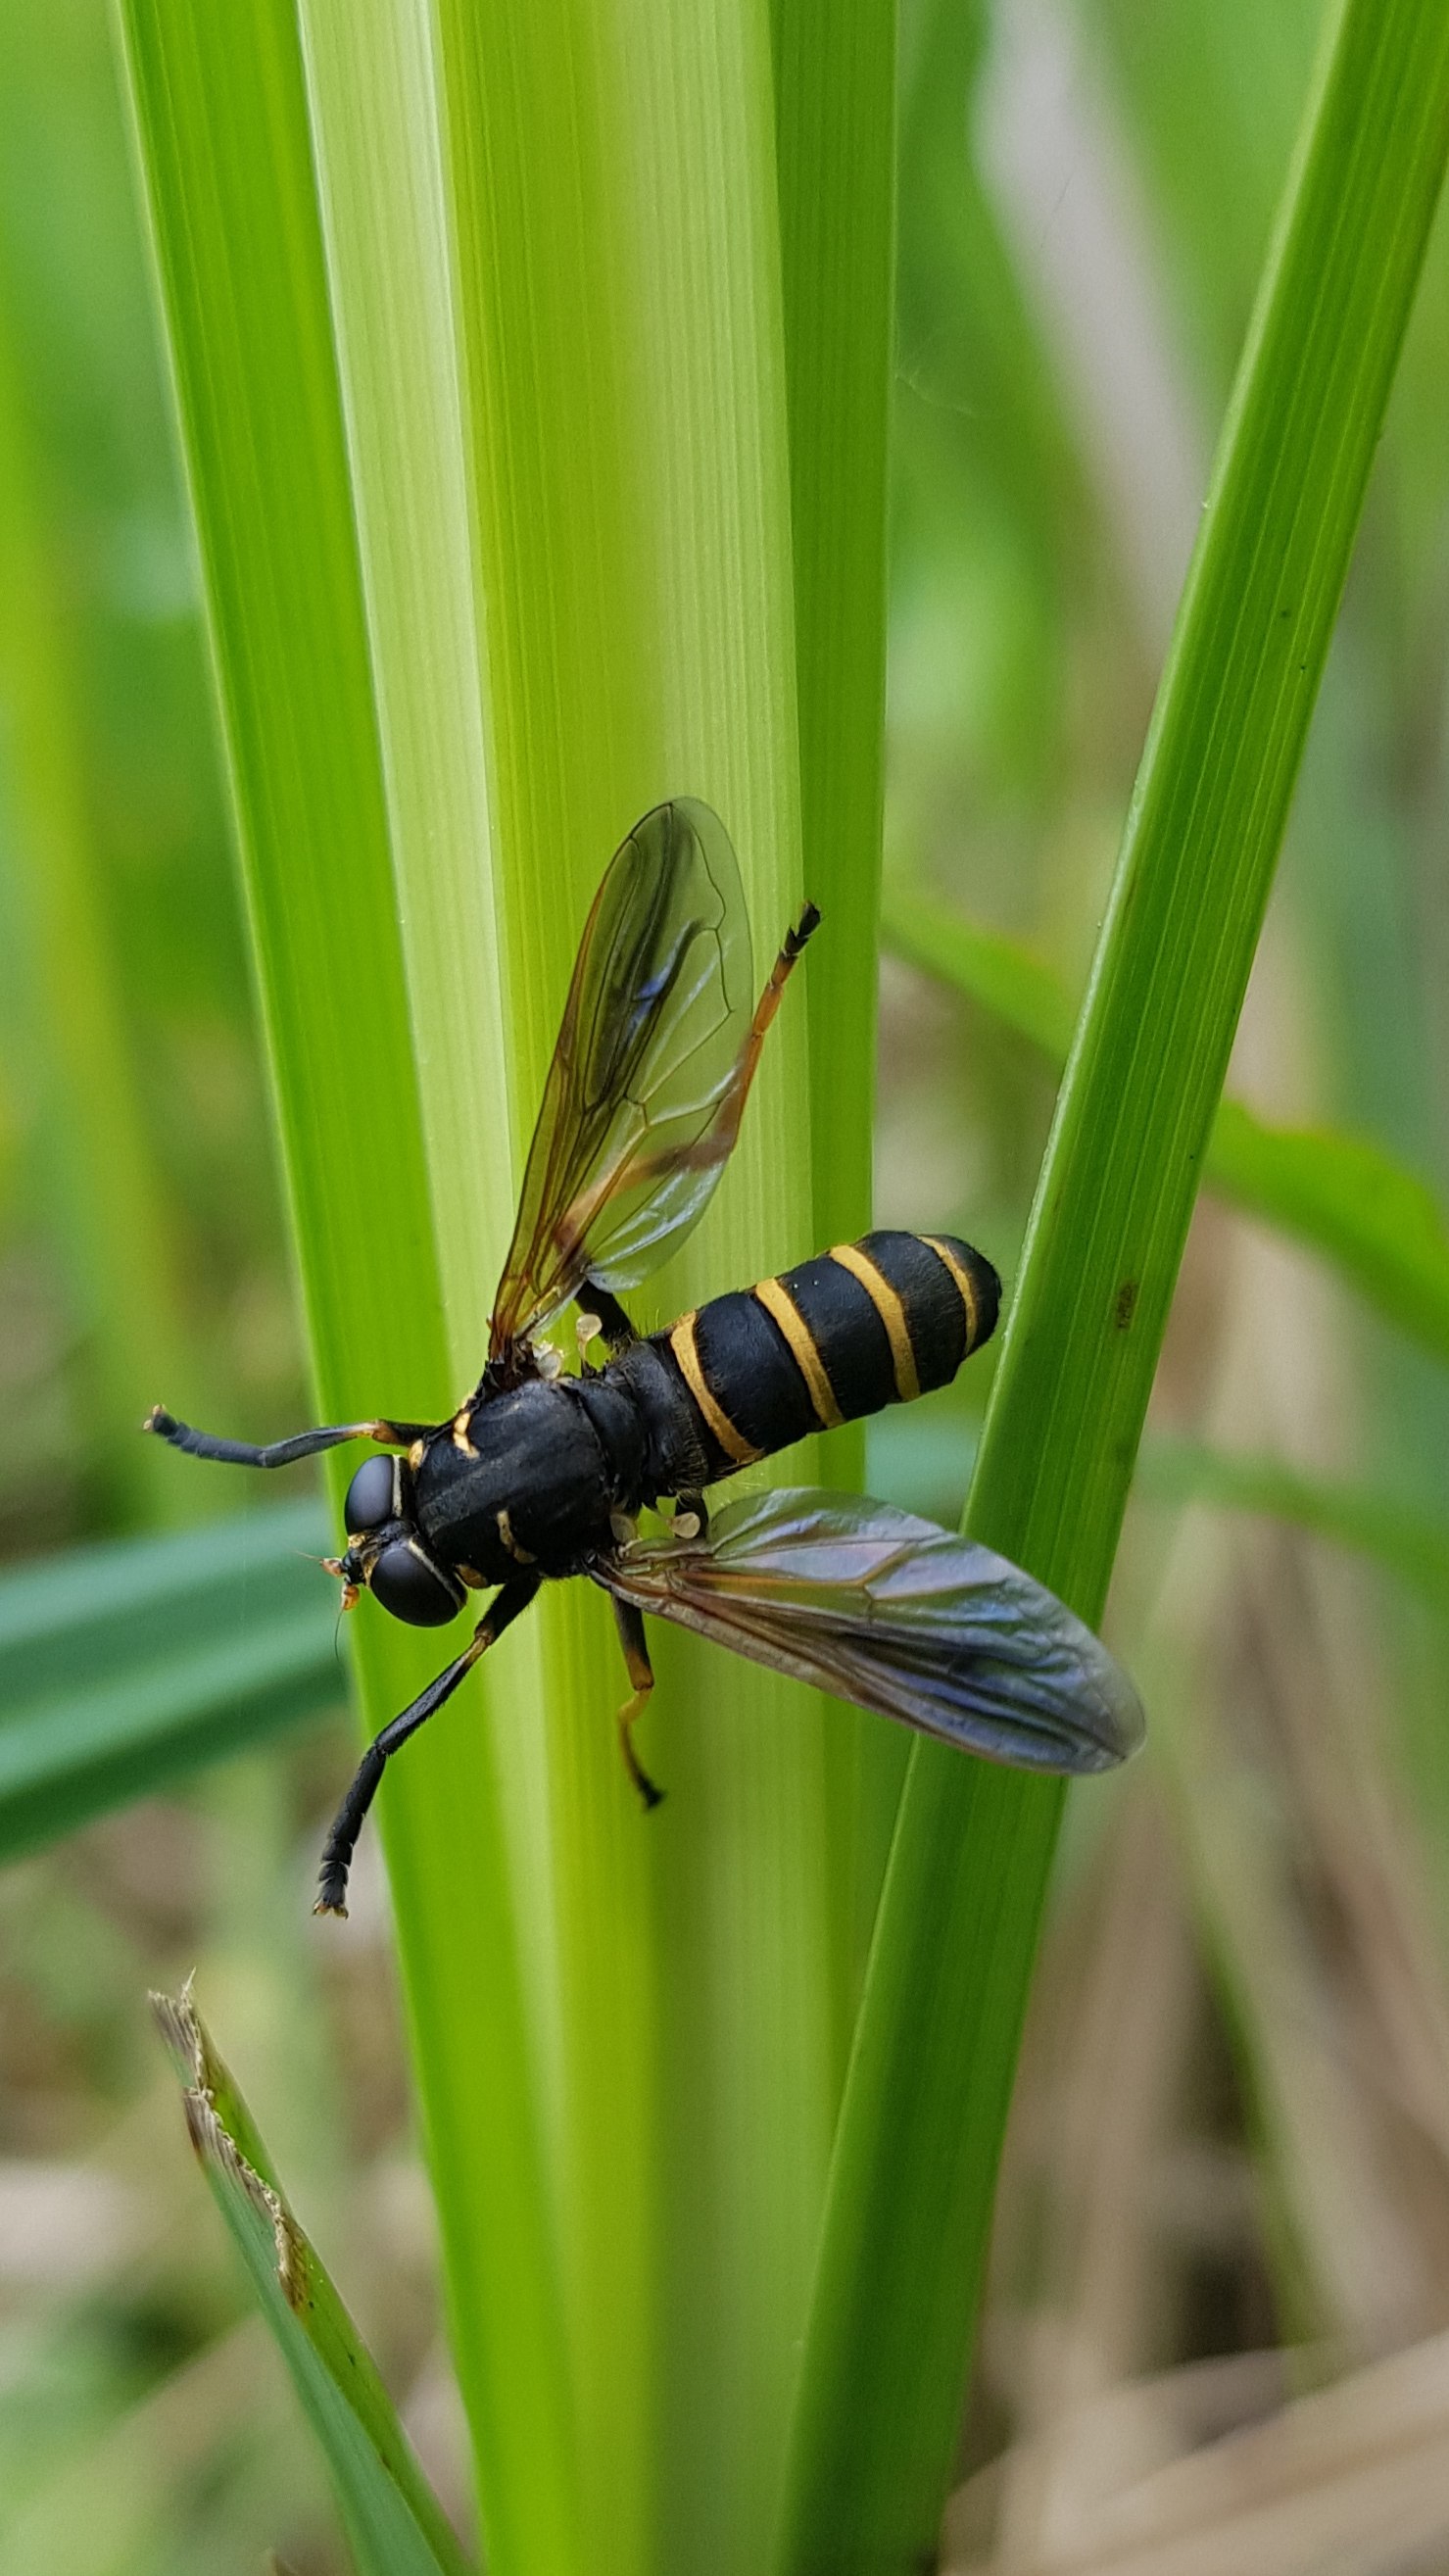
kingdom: Animalia
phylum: Arthropoda
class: Insecta
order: Diptera
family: Syrphidae
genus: Temnostoma
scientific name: Temnostoma bombylans
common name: Sort vedsvirreflue
